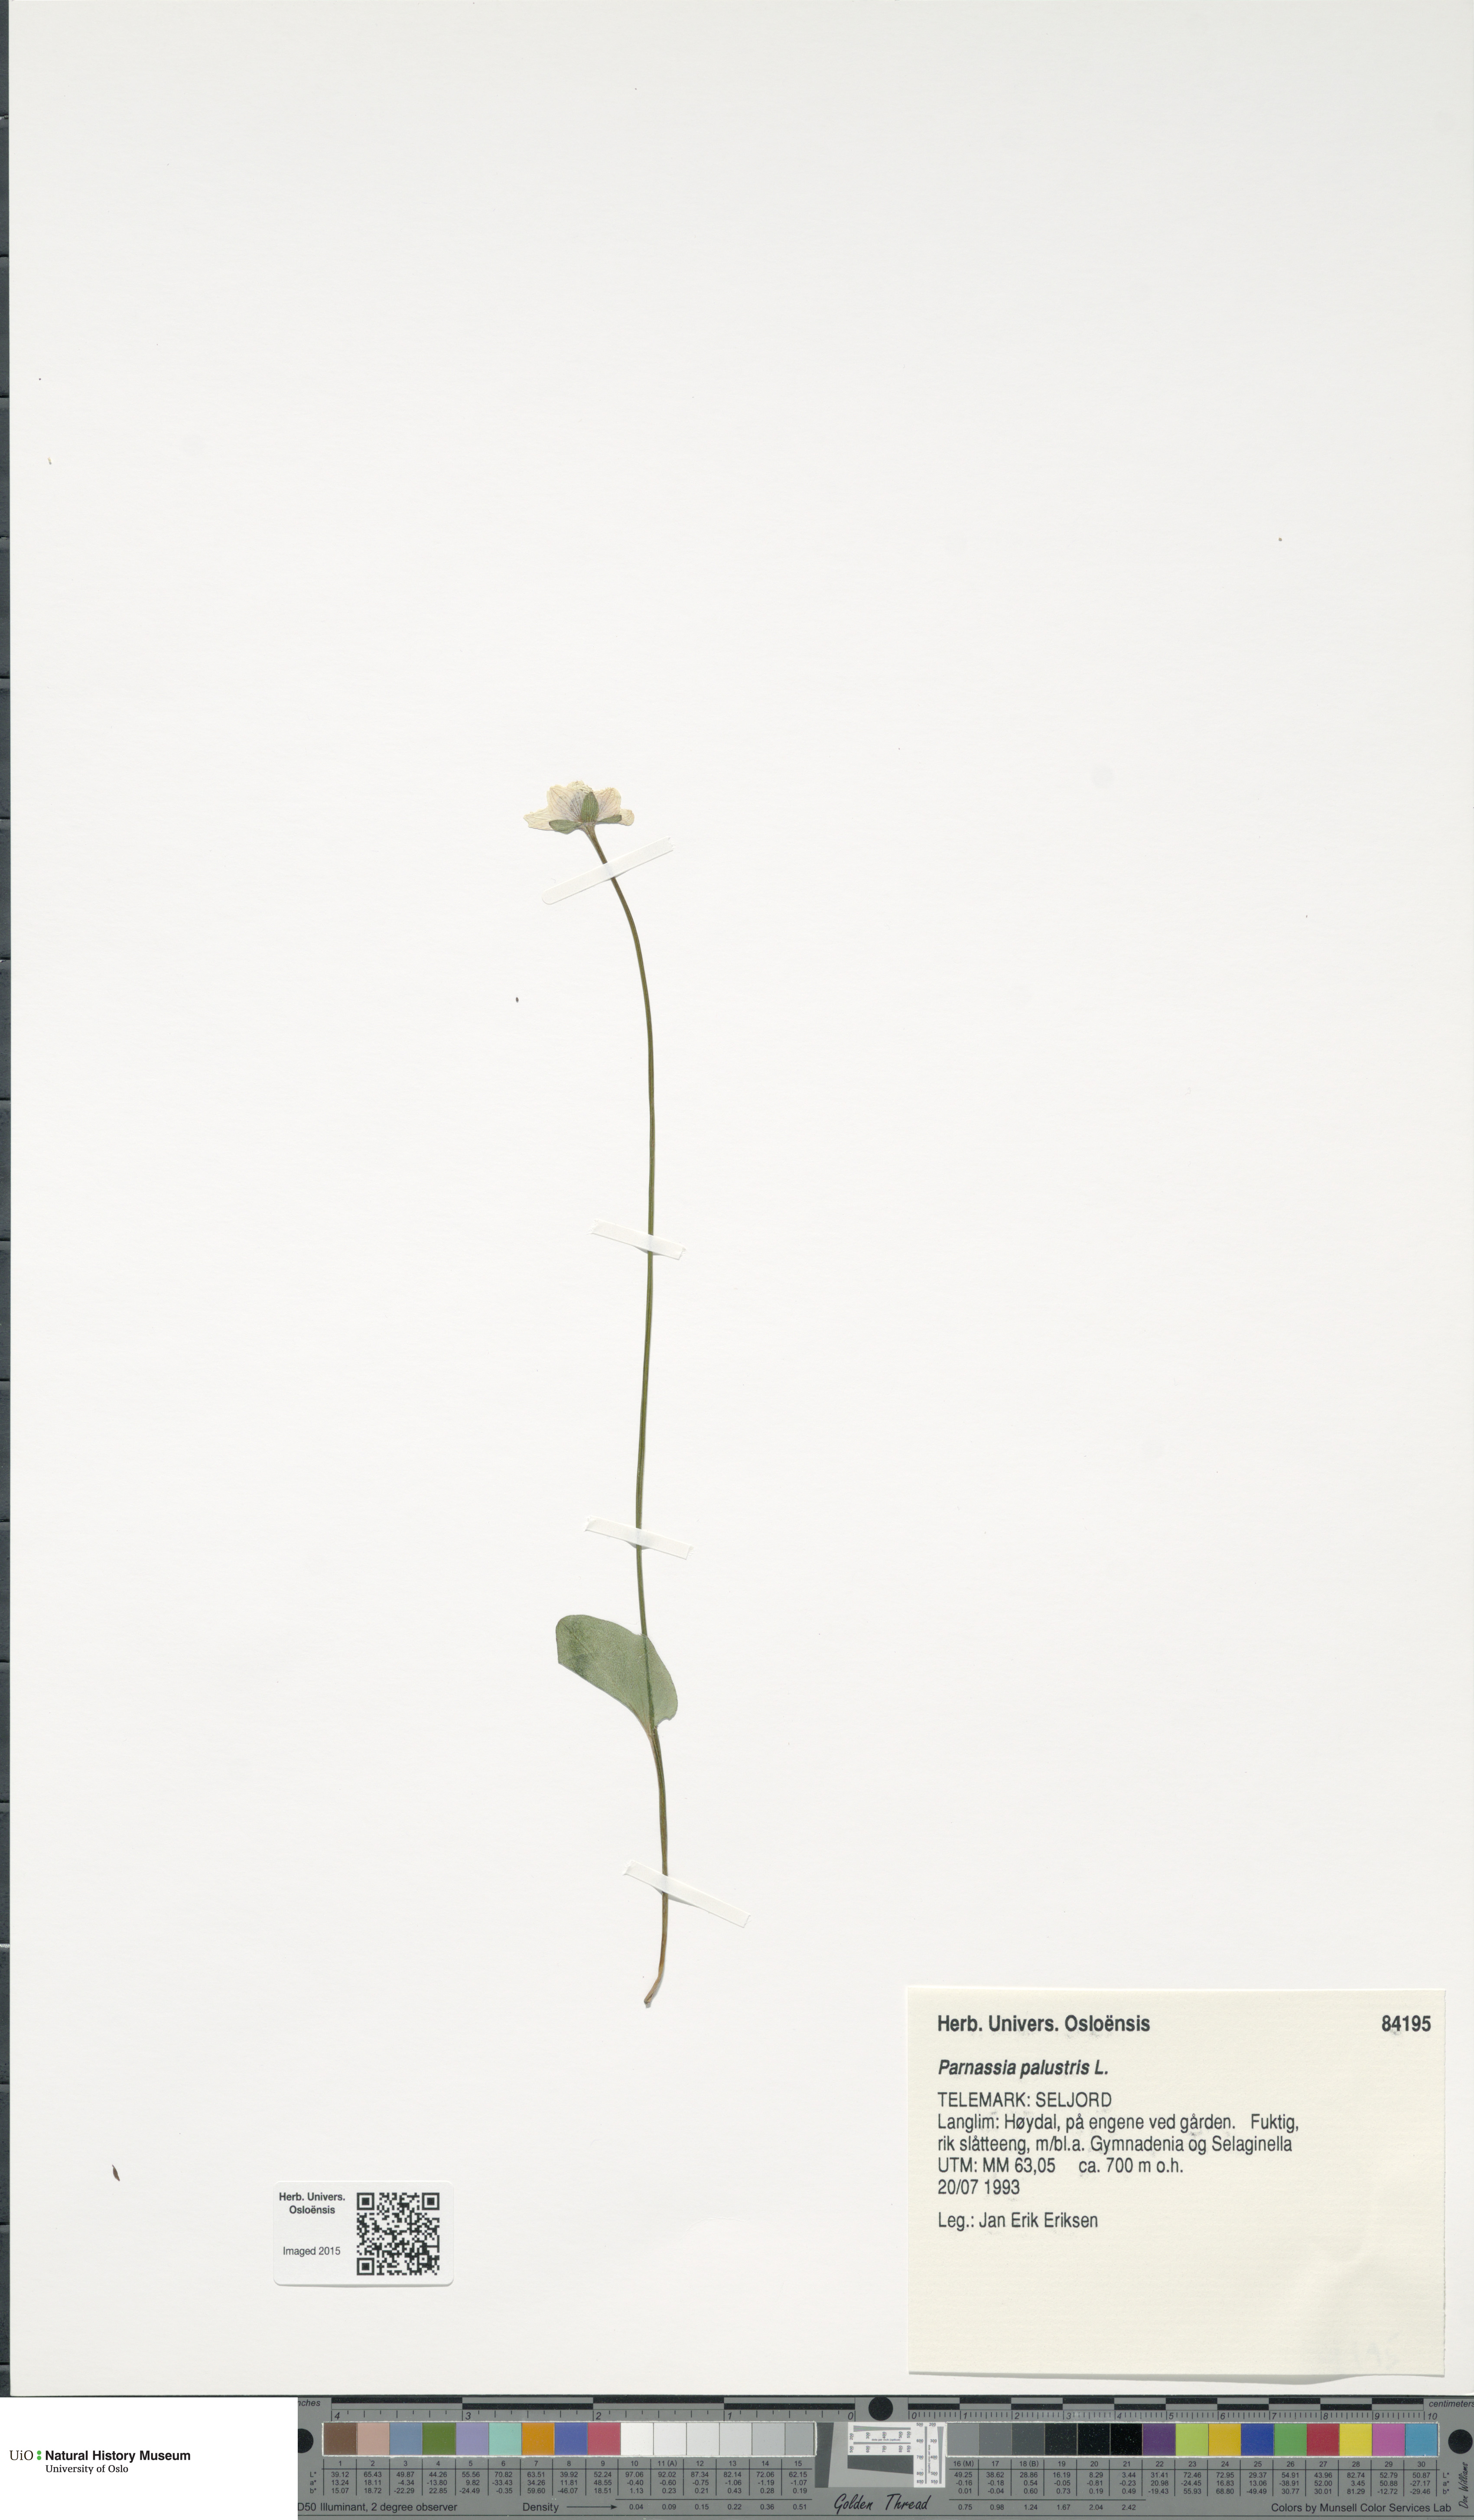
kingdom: Plantae
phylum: Tracheophyta
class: Magnoliopsida
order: Celastrales
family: Parnassiaceae
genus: Parnassia
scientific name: Parnassia palustris
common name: Grass-of-parnassus
